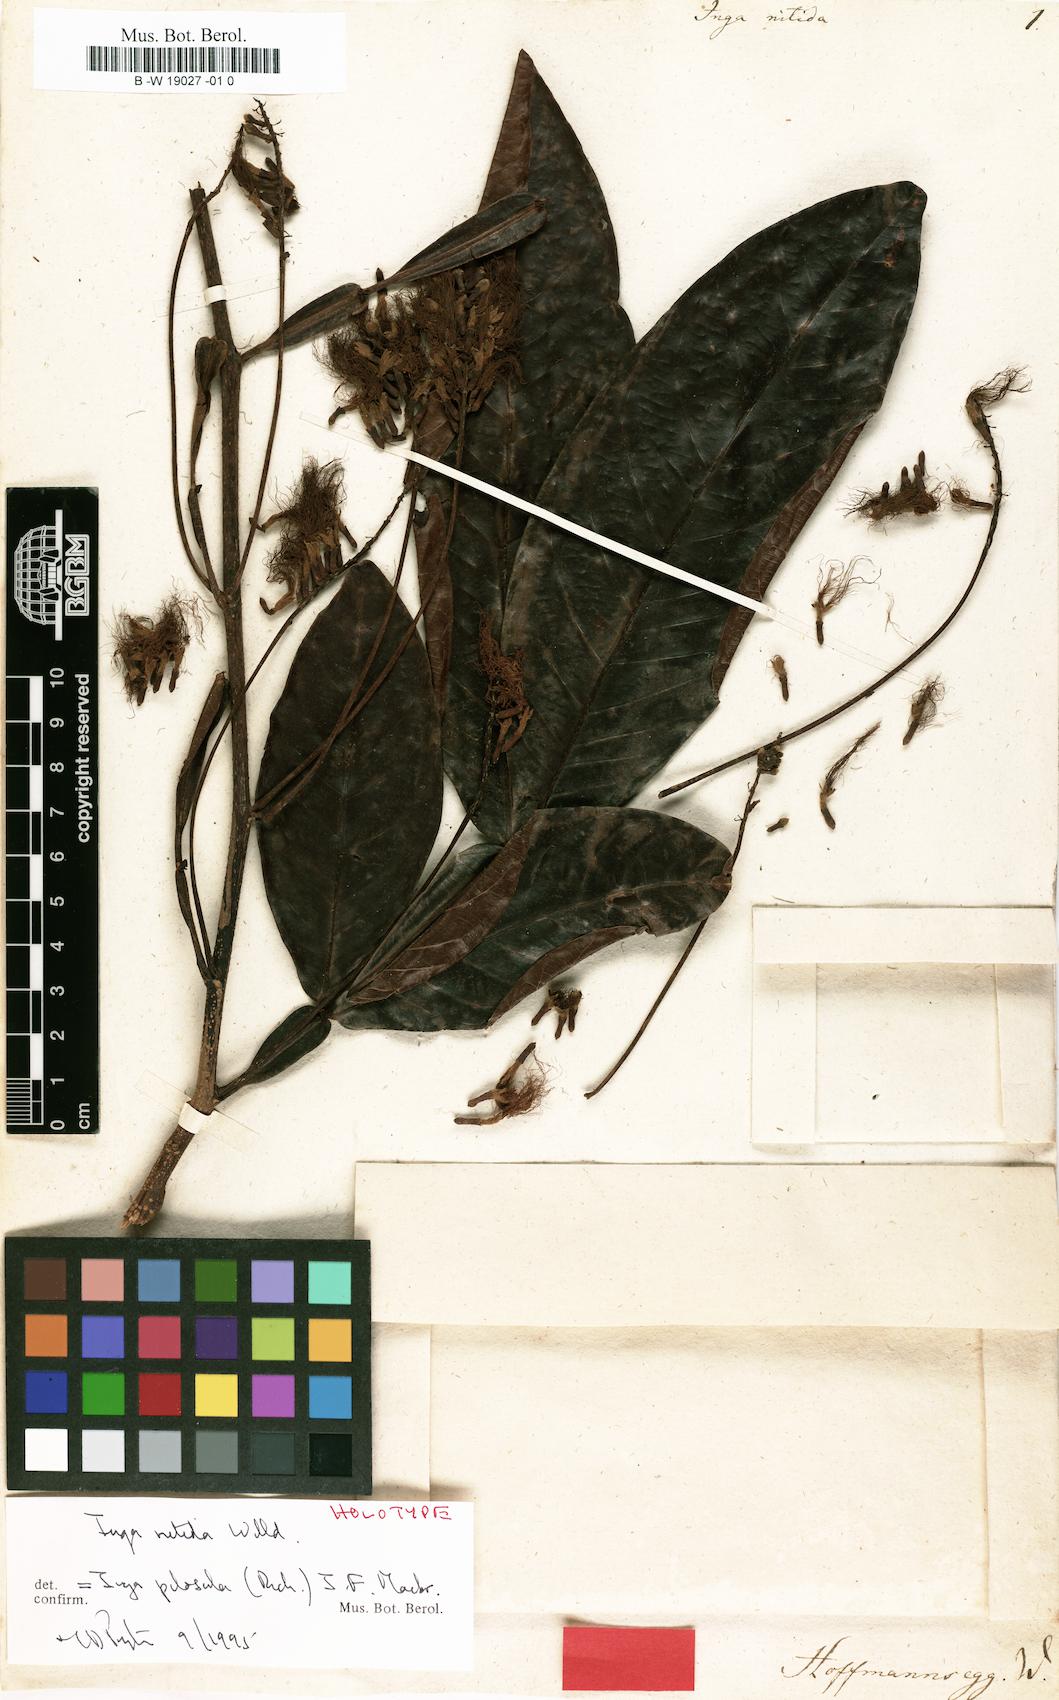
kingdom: Plantae
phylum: Tracheophyta
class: Magnoliopsida
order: Fabales
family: Fabaceae
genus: Inga
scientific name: Inga pilosula
